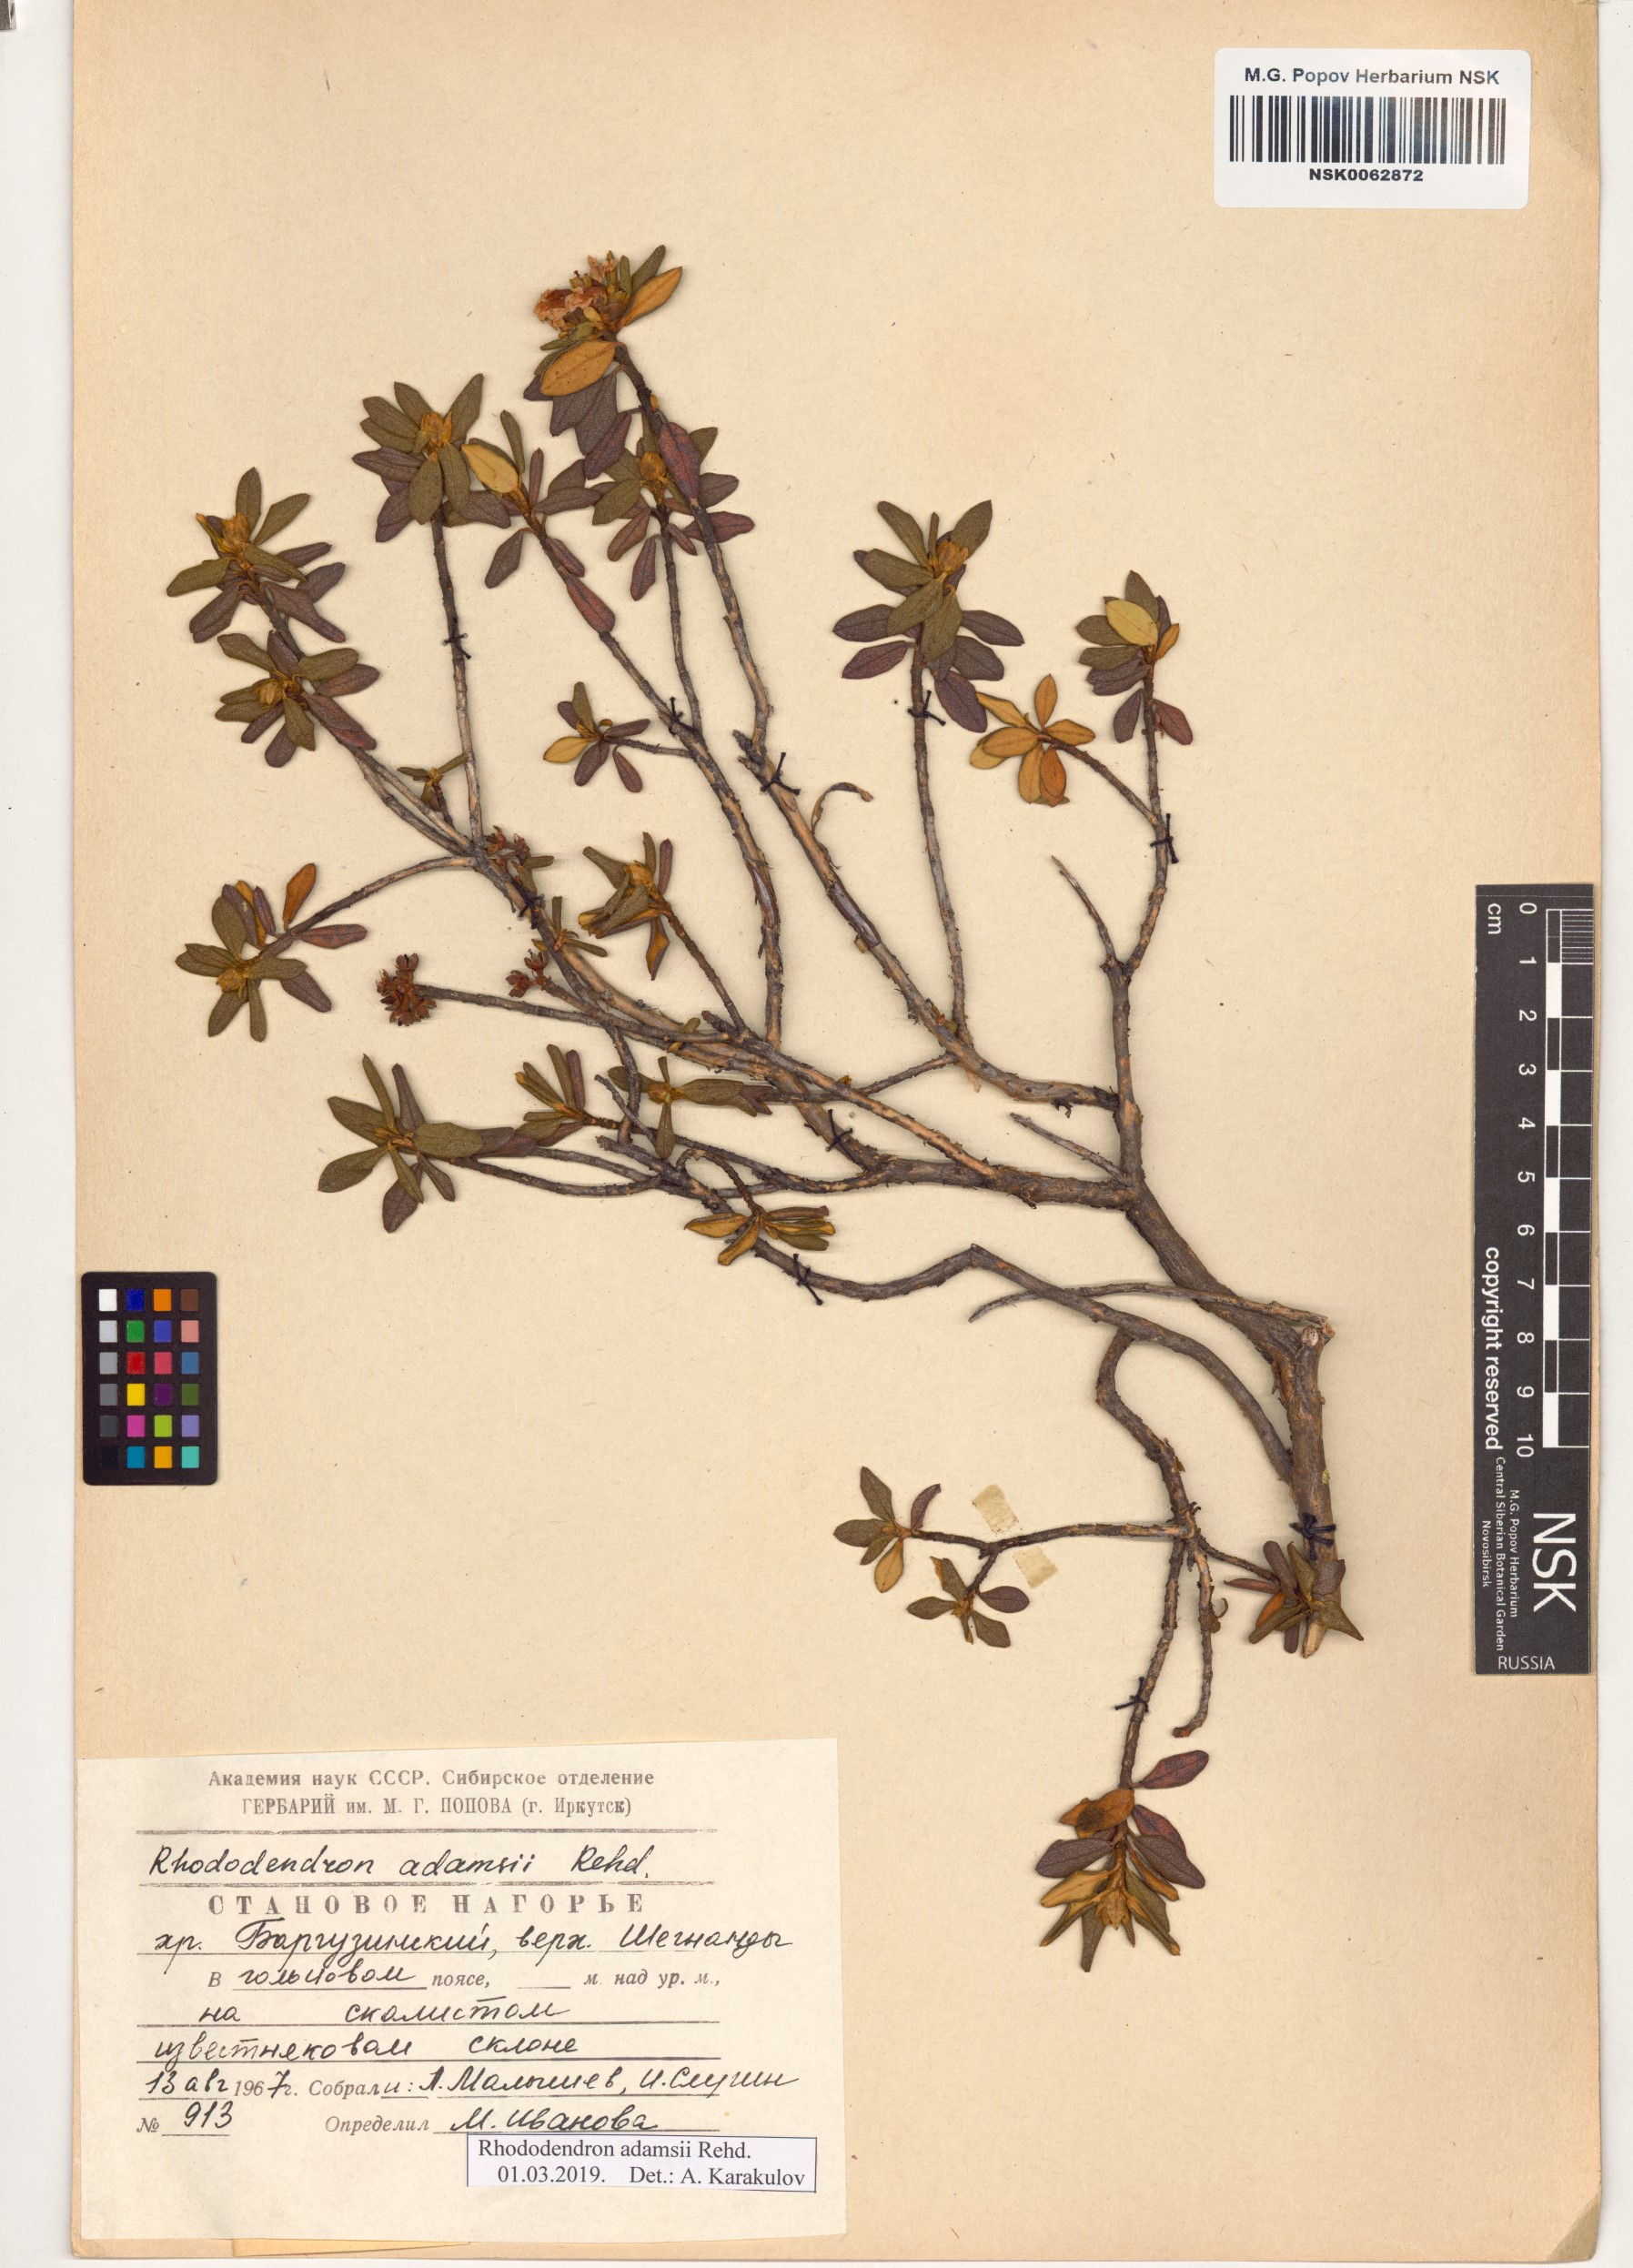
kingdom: Plantae
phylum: Tracheophyta
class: Magnoliopsida
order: Ericales
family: Ericaceae
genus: Rhododendron
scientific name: Rhododendron adamsii
